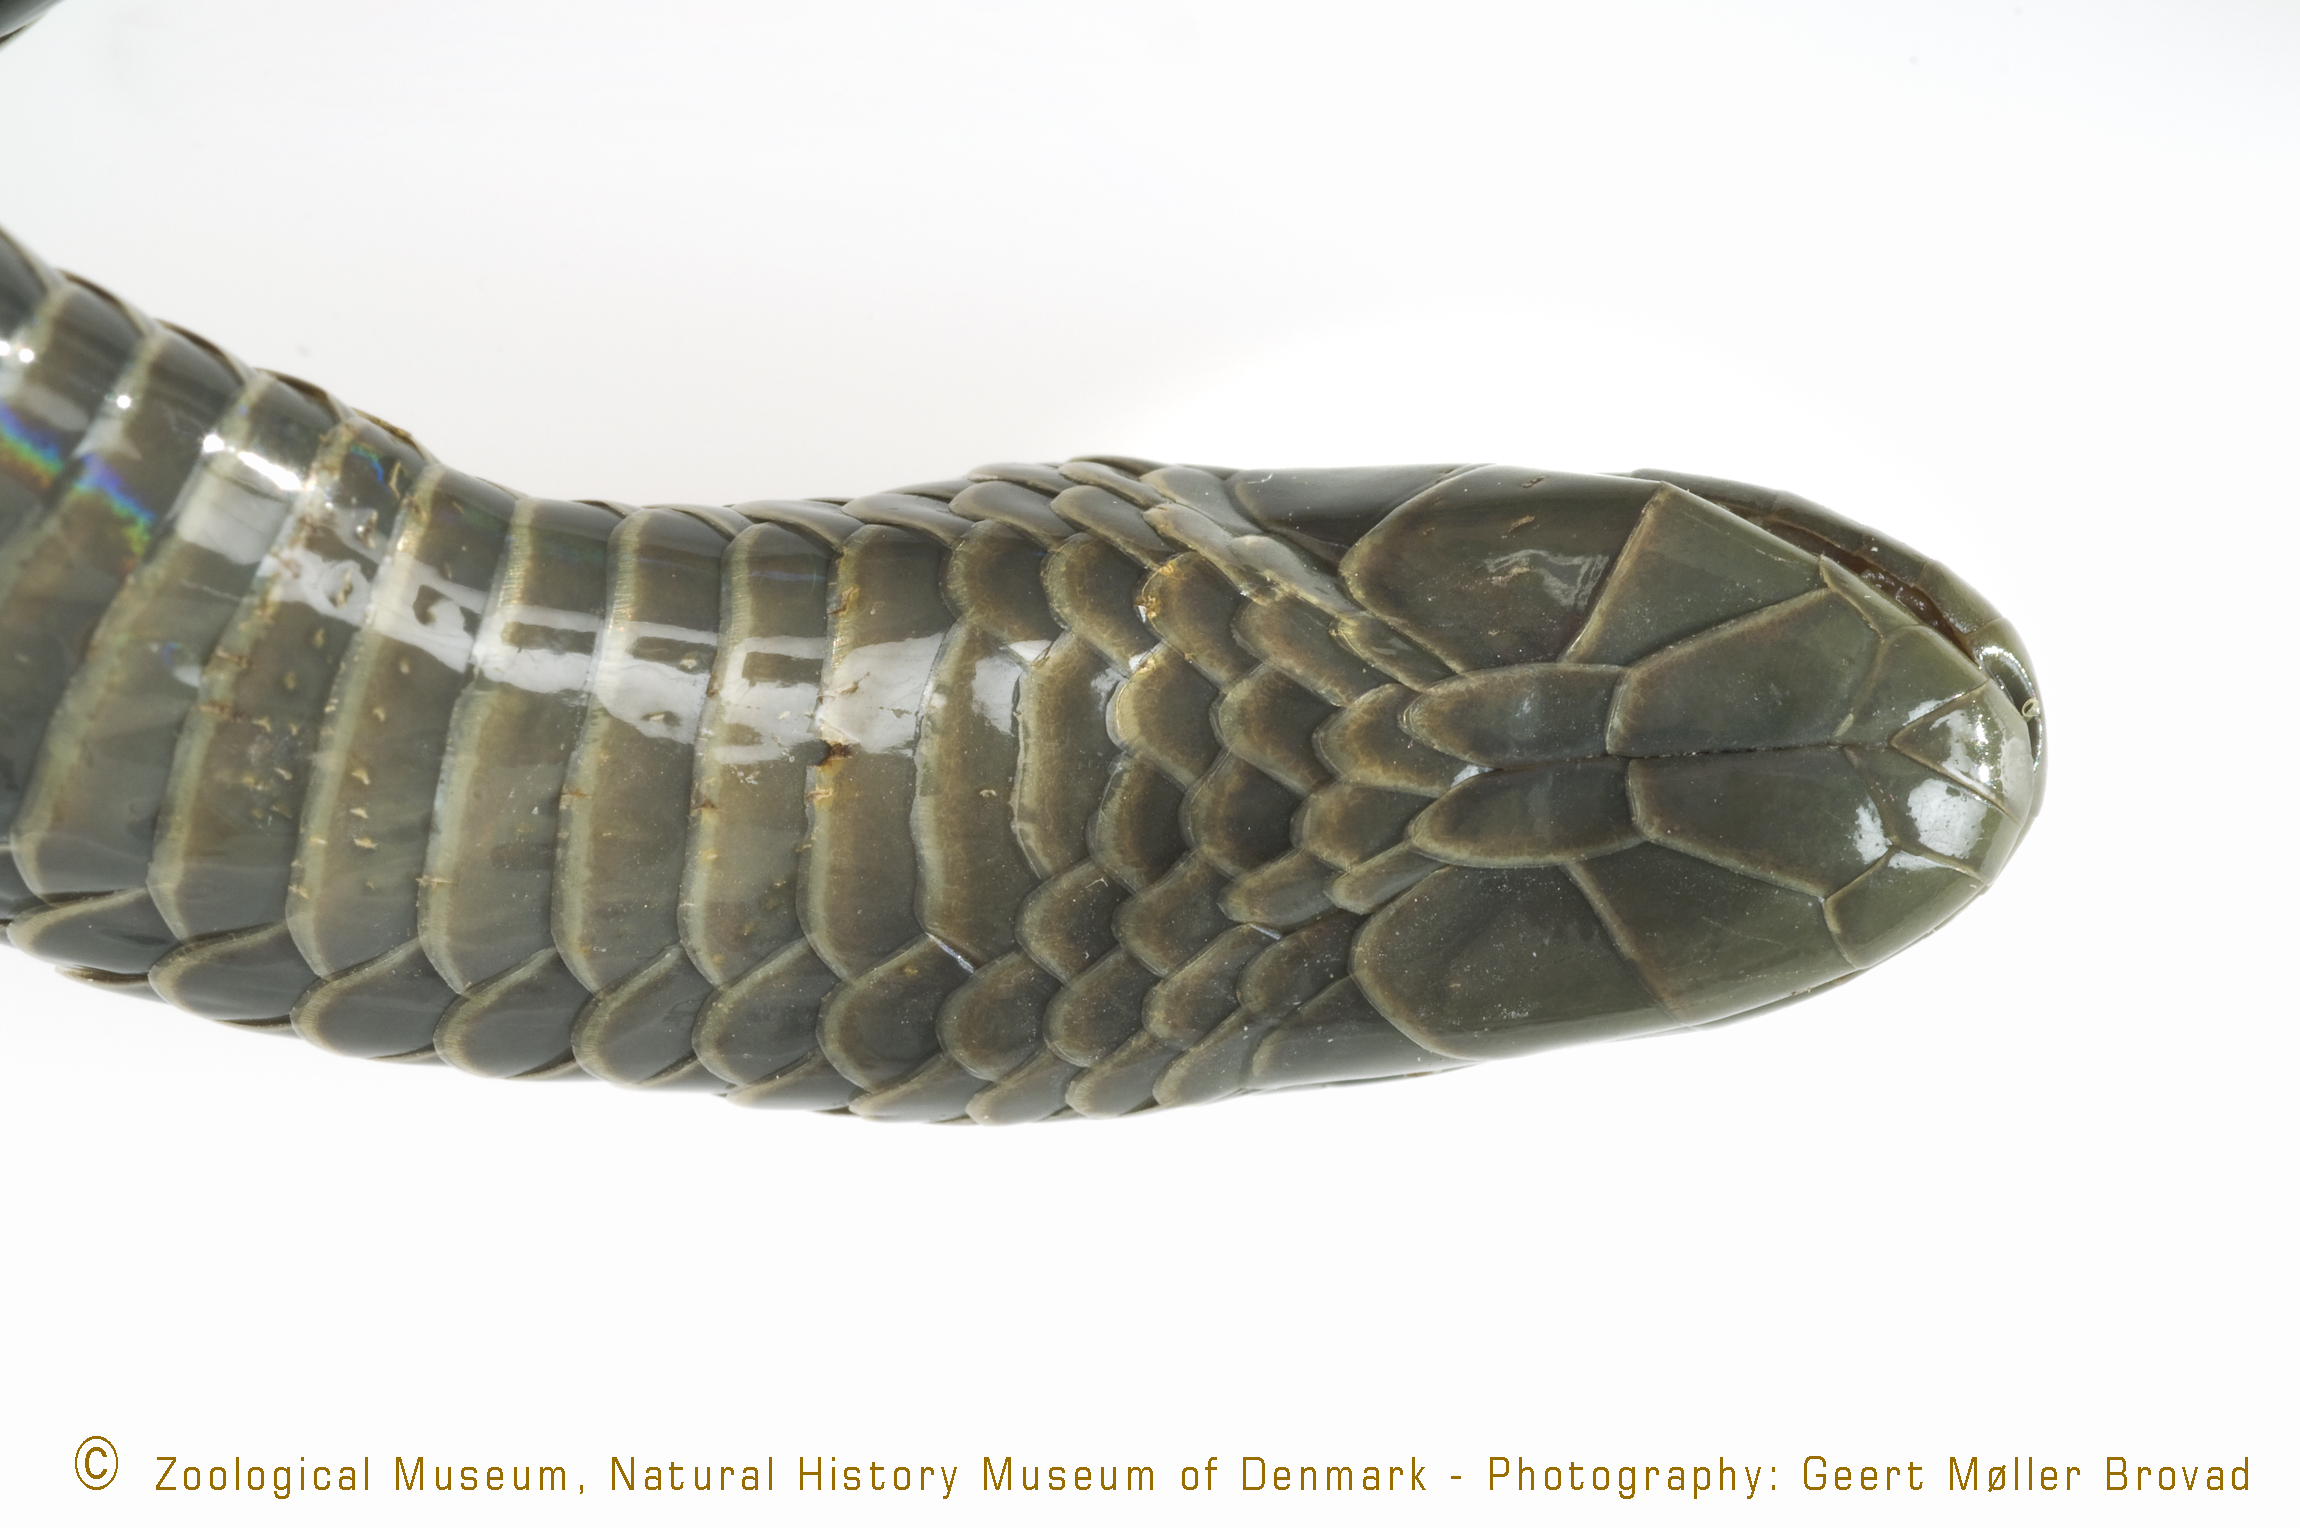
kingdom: Animalia
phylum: Chordata
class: Squamata
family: Atractaspididae
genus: Atractaspis
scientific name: Atractaspis irregularis
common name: Mole viper
